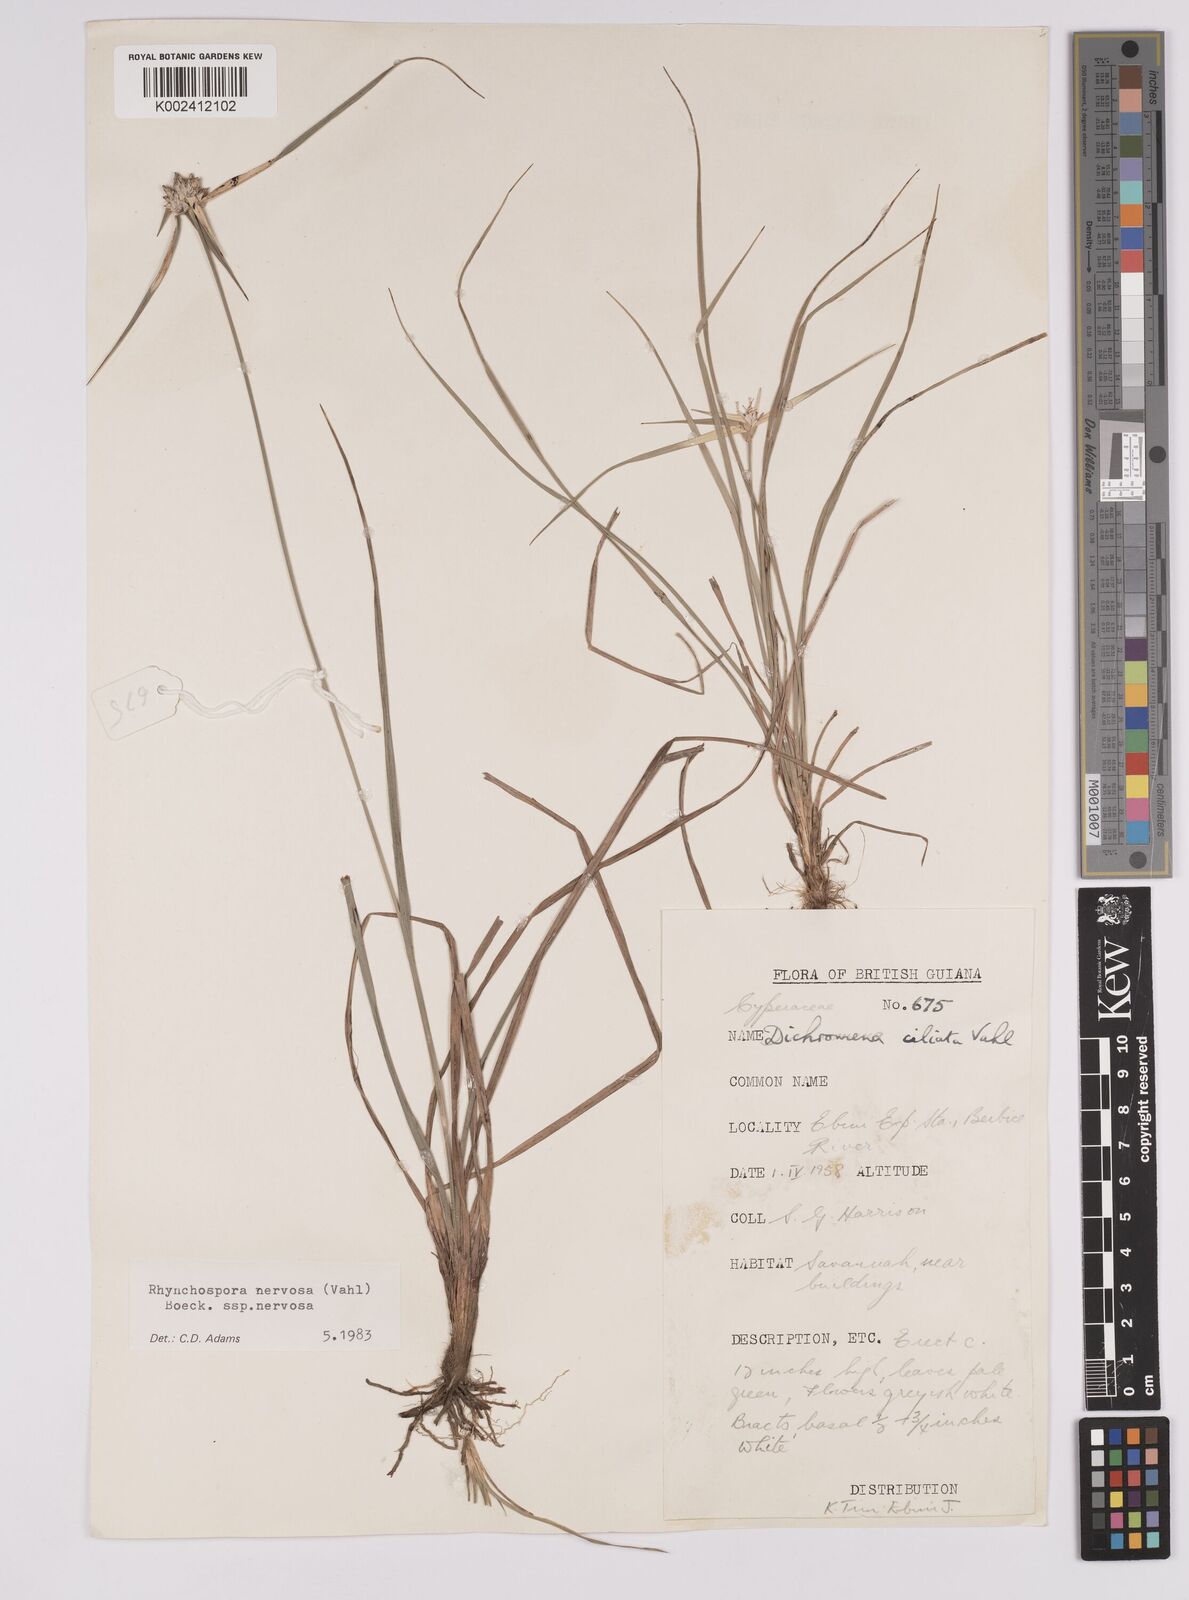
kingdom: Plantae
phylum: Tracheophyta
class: Liliopsida
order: Poales
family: Cyperaceae
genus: Rhynchospora
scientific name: Rhynchospora nervosa
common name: Star sedge
